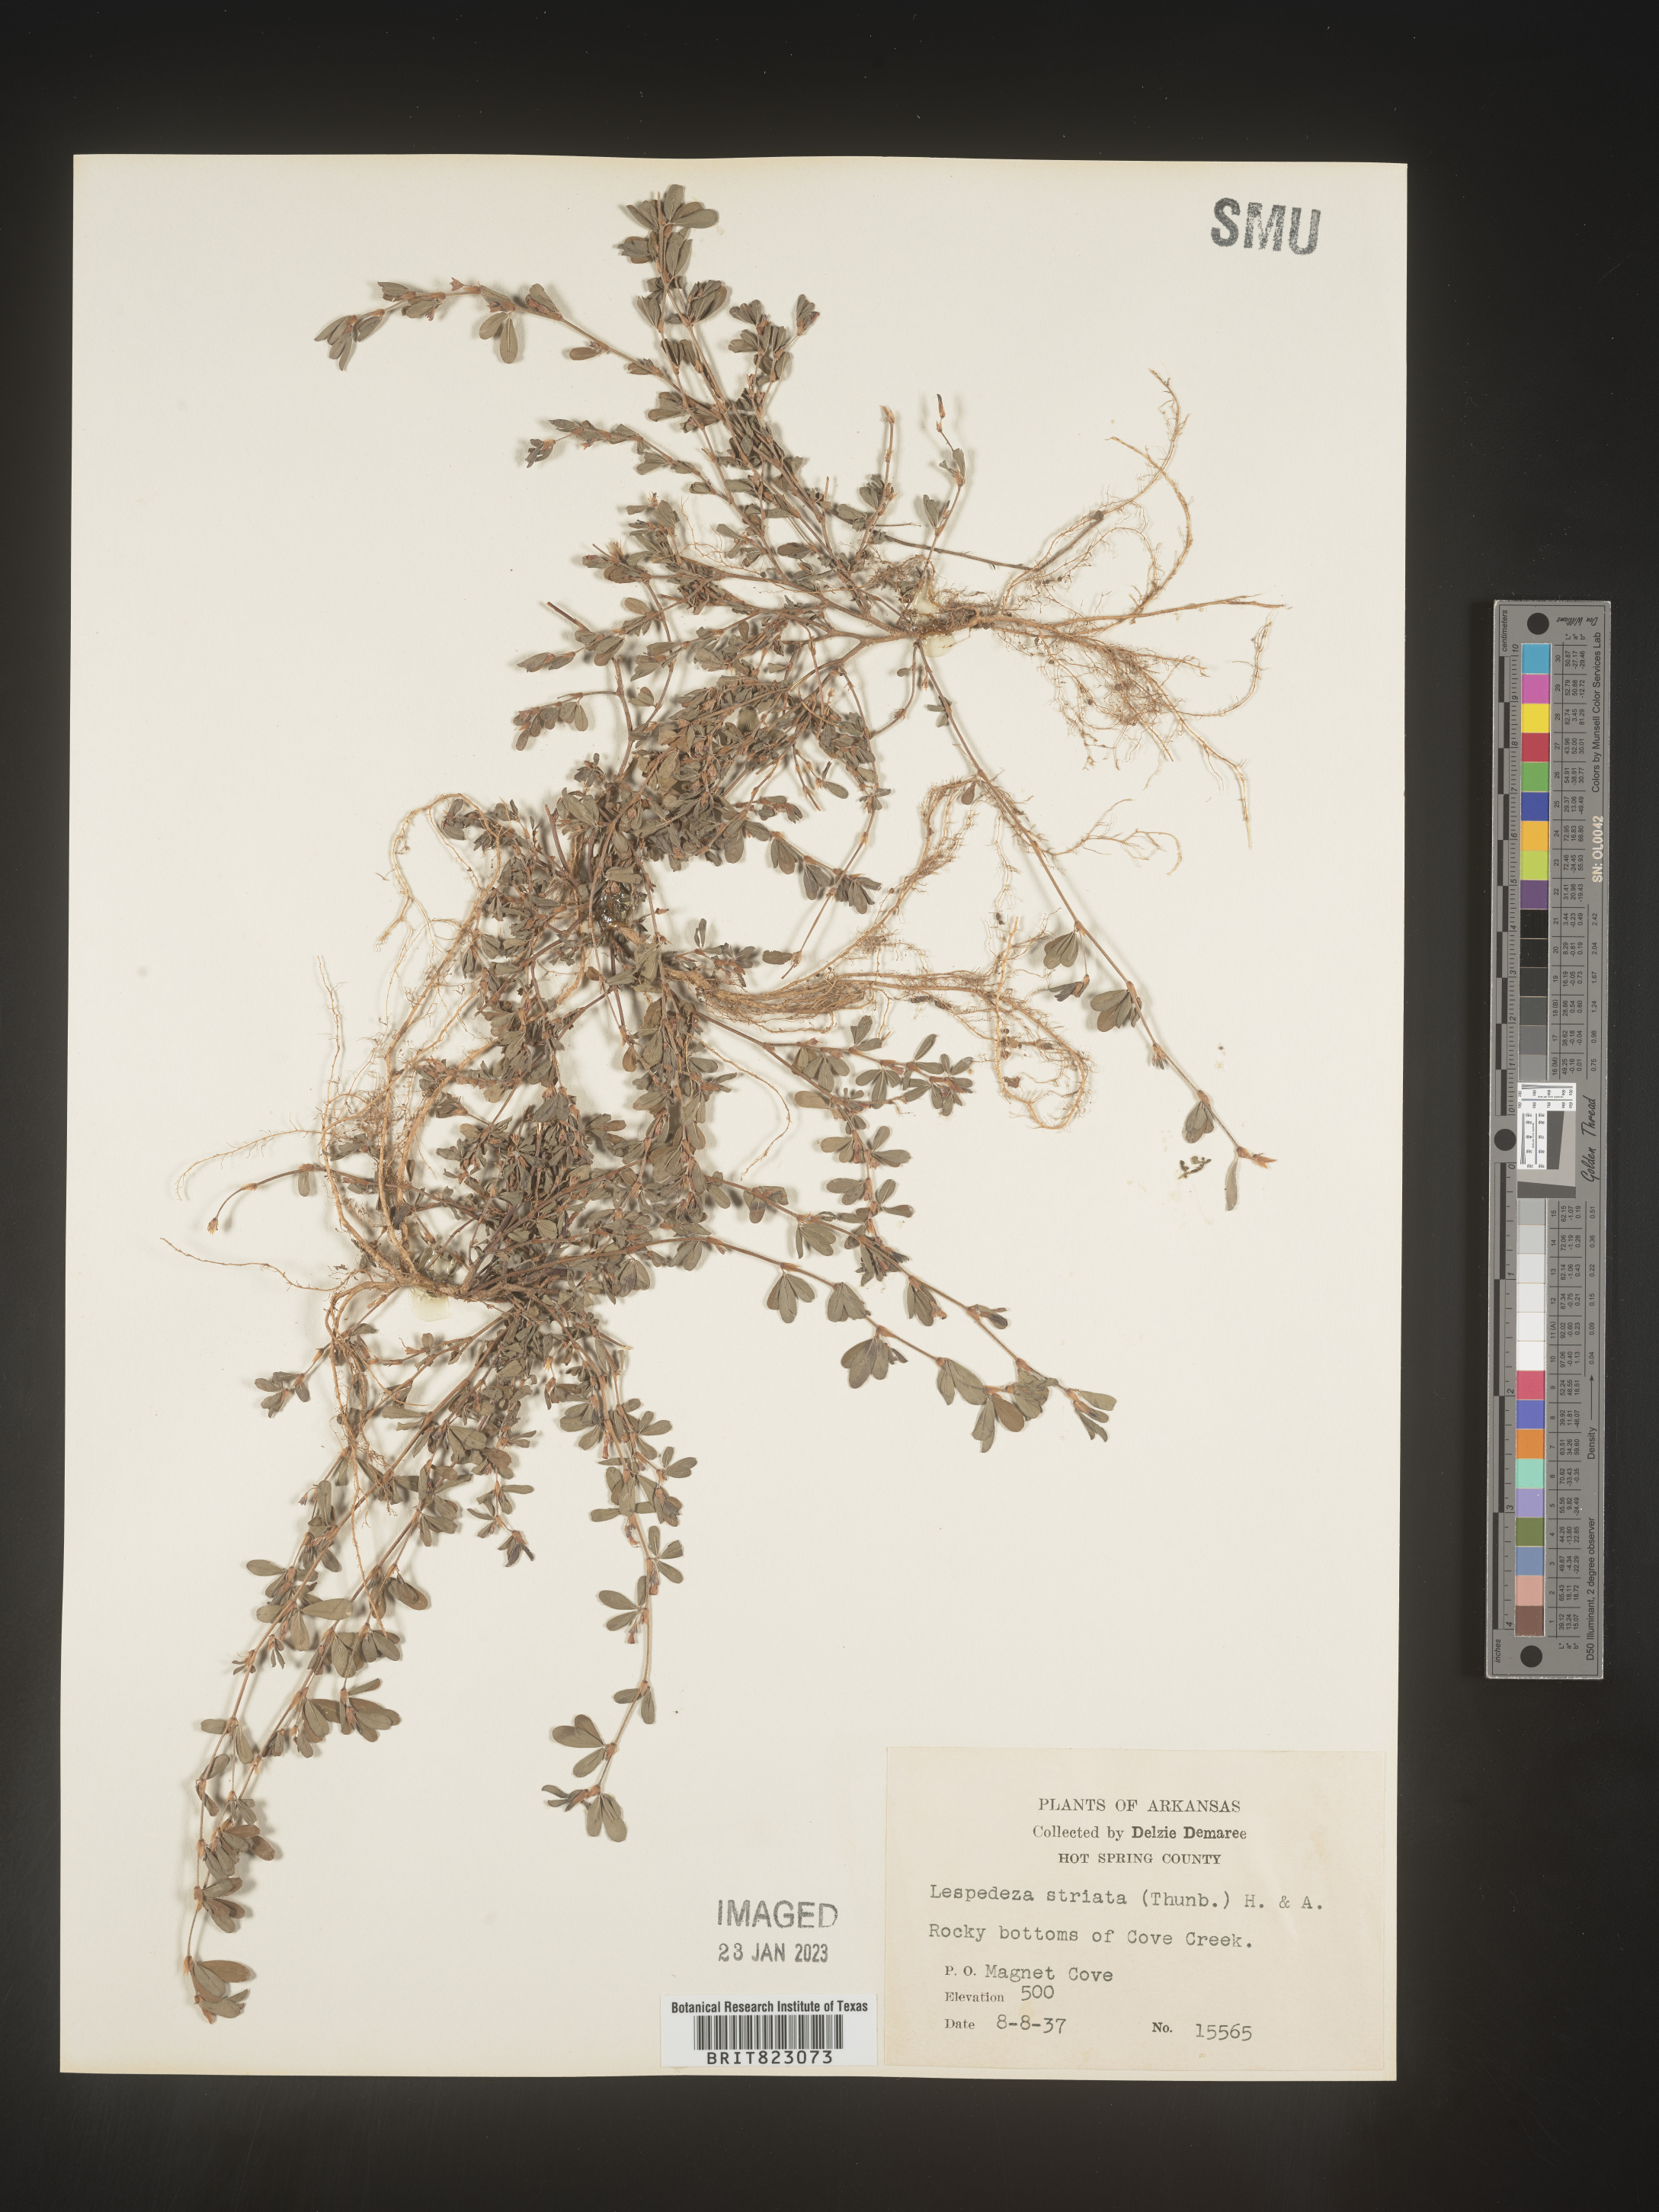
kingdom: Plantae
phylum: Tracheophyta
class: Magnoliopsida
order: Fabales
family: Fabaceae
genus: Kummerowia
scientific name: Kummerowia striata
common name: Japanese clover
